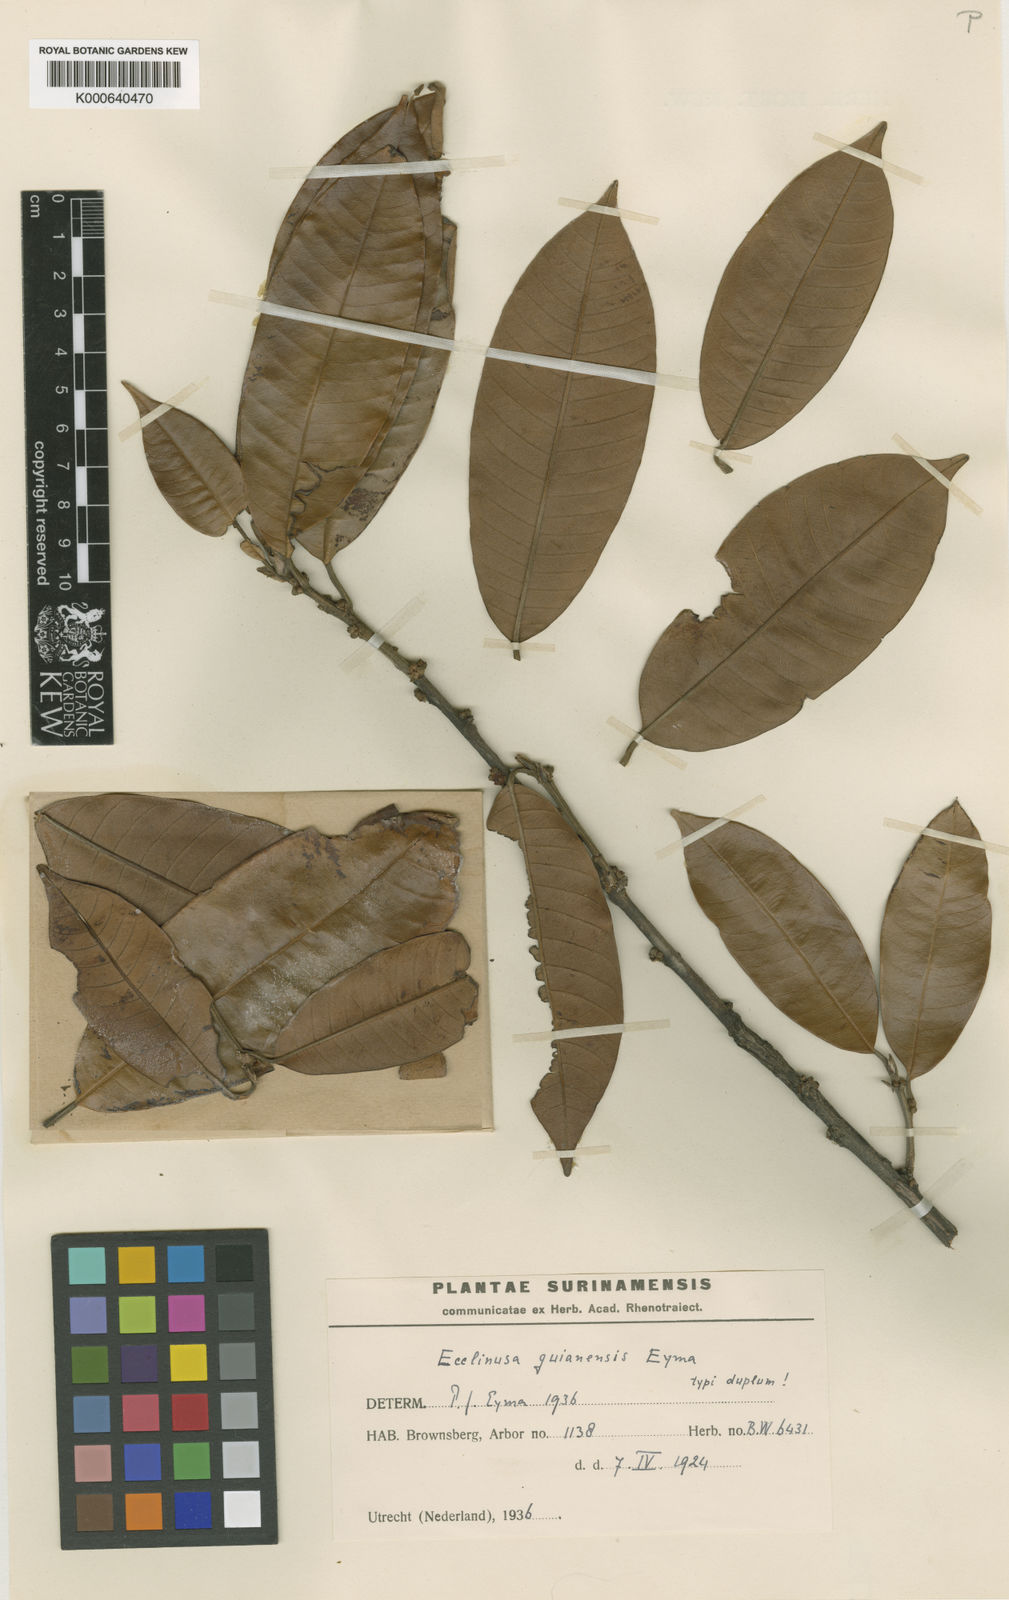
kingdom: Plantae
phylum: Tracheophyta
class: Magnoliopsida
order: Ericales
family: Sapotaceae
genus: Ecclinusa
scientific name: Ecclinusa guianensis
